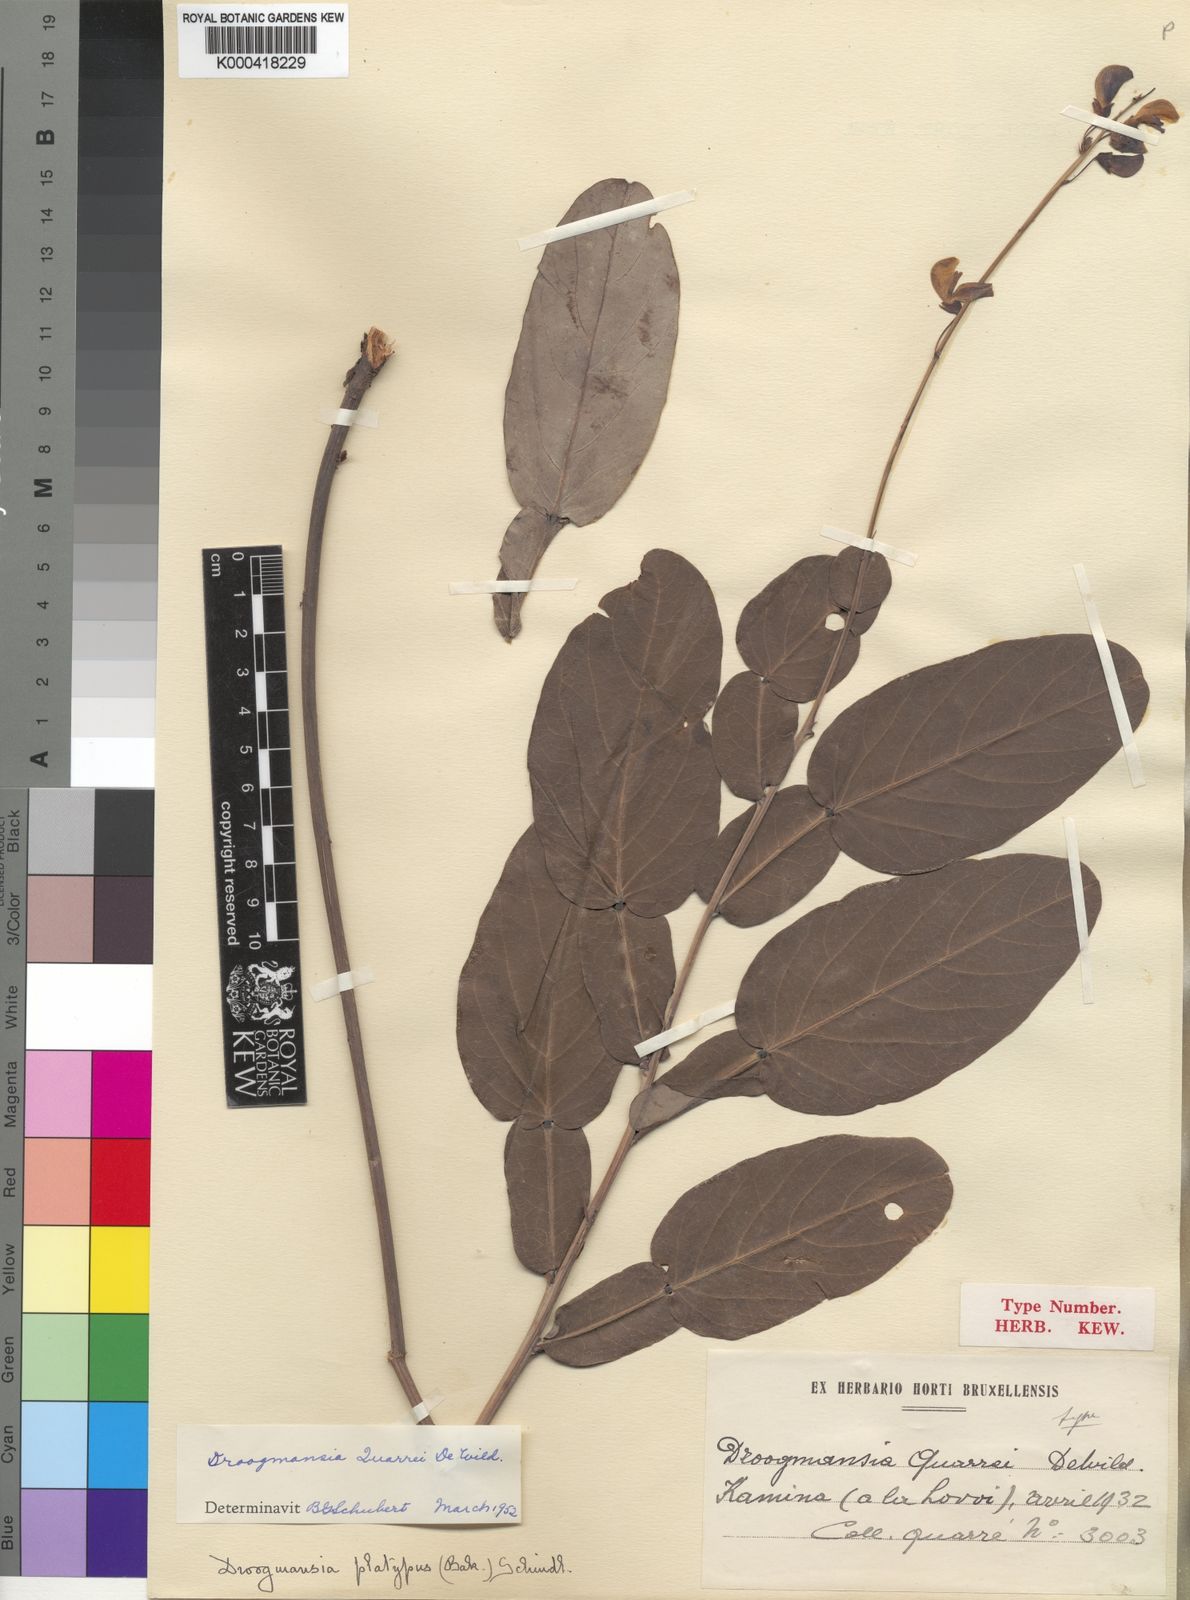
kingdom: Plantae
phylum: Tracheophyta
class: Magnoliopsida
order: Fabales
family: Fabaceae
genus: Droogmansia
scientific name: Droogmansia pteropus
